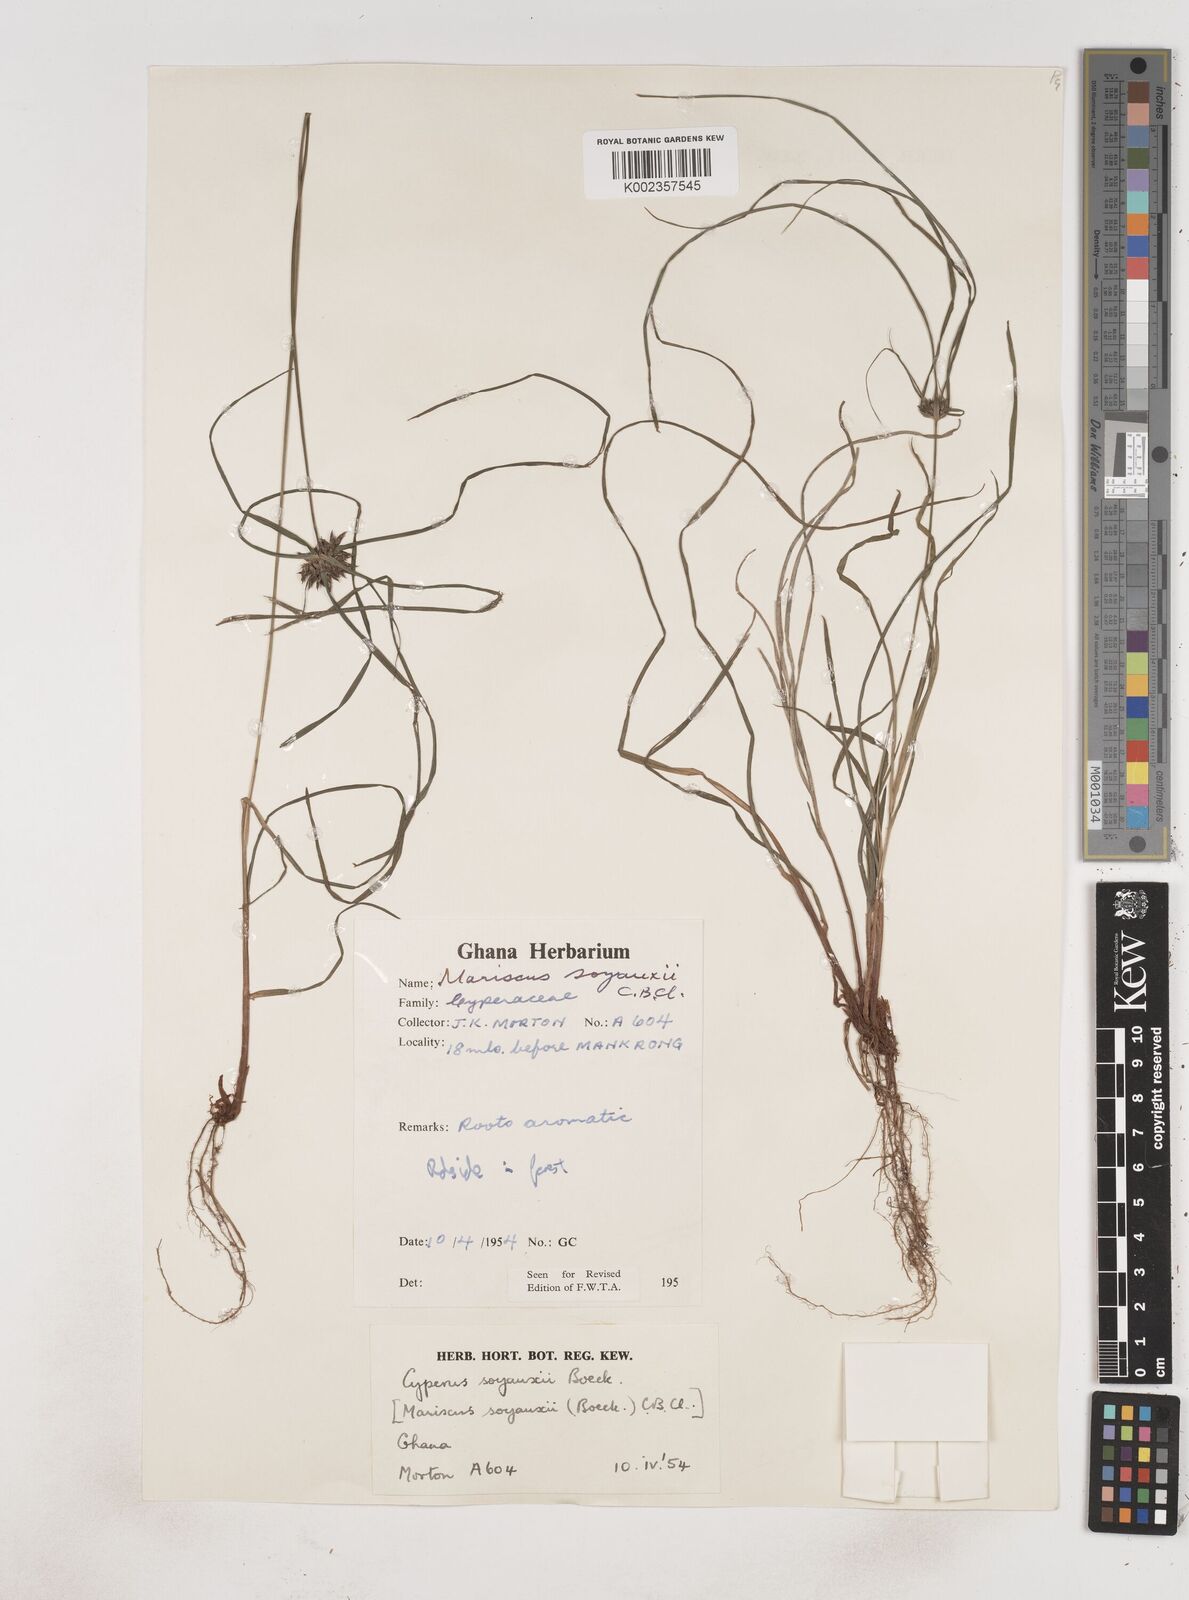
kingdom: Plantae
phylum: Tracheophyta
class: Liliopsida
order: Poales
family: Cyperaceae
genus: Cyperus
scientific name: Cyperus soyauxii
